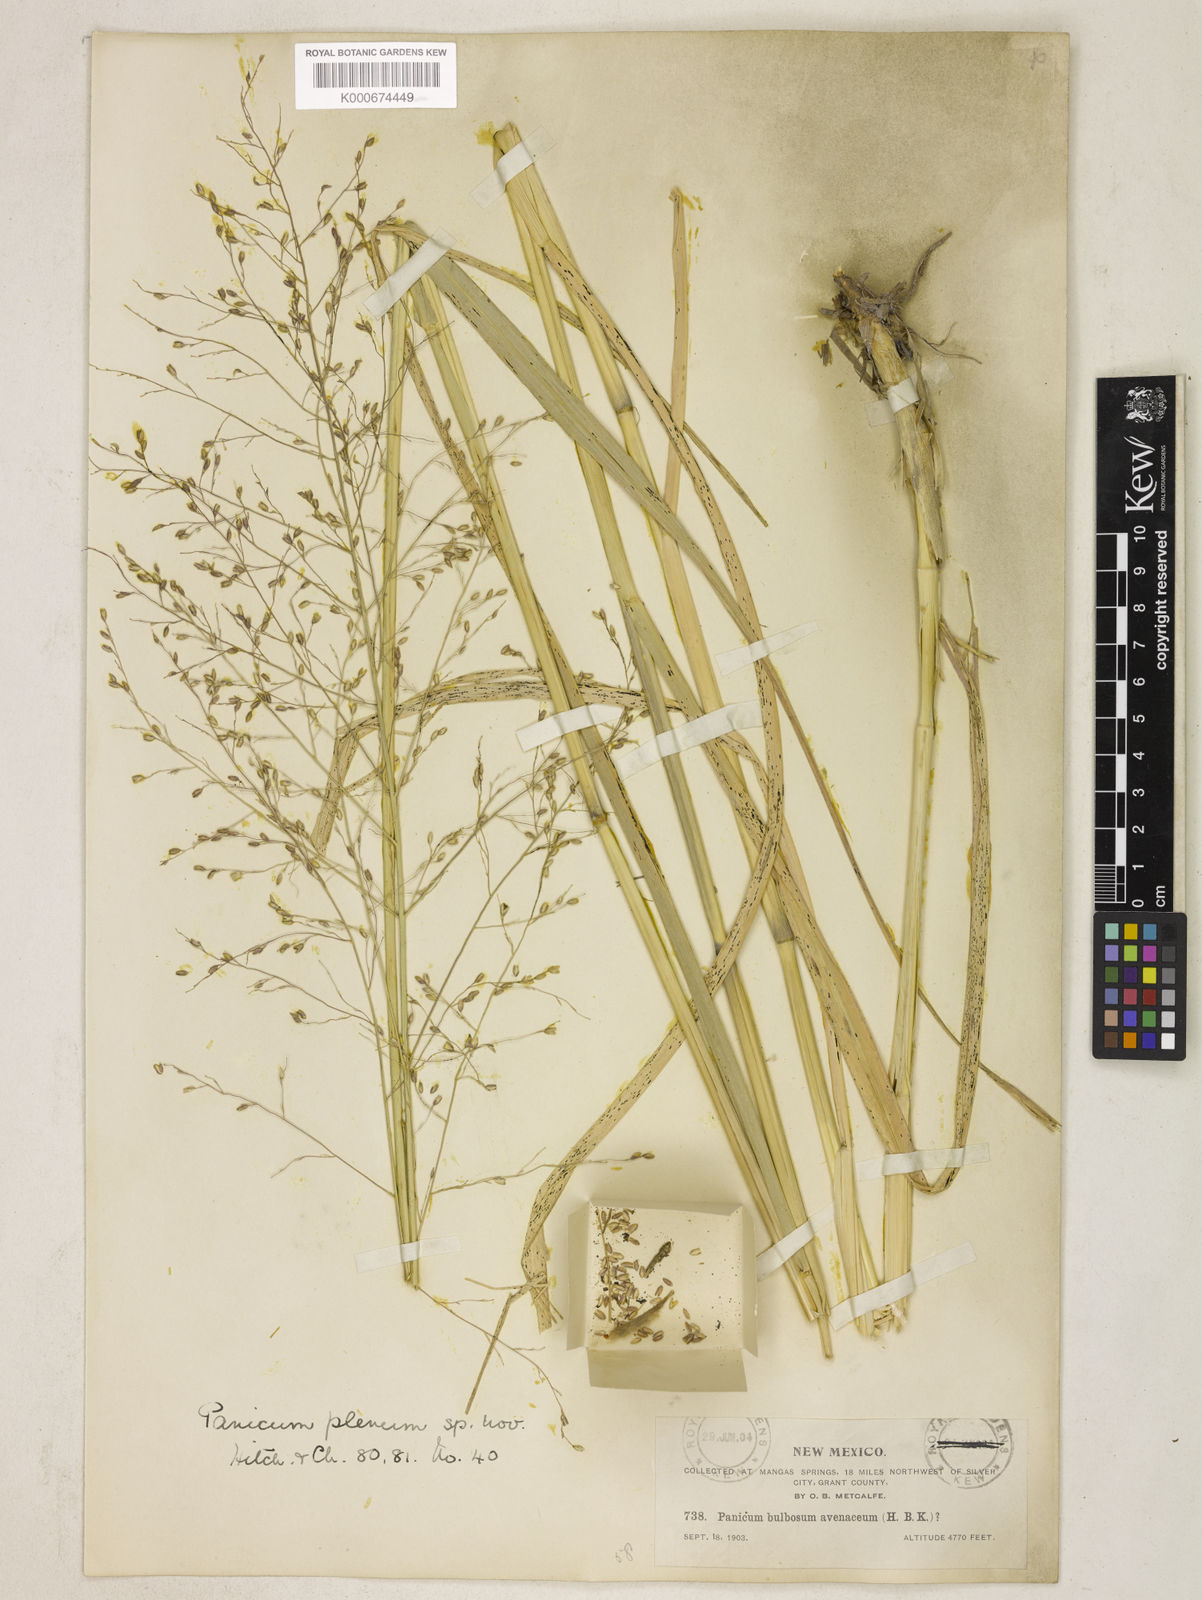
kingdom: Plantae
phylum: Tracheophyta
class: Liliopsida
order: Poales
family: Poaceae
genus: Panicum
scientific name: Panicum plenum
